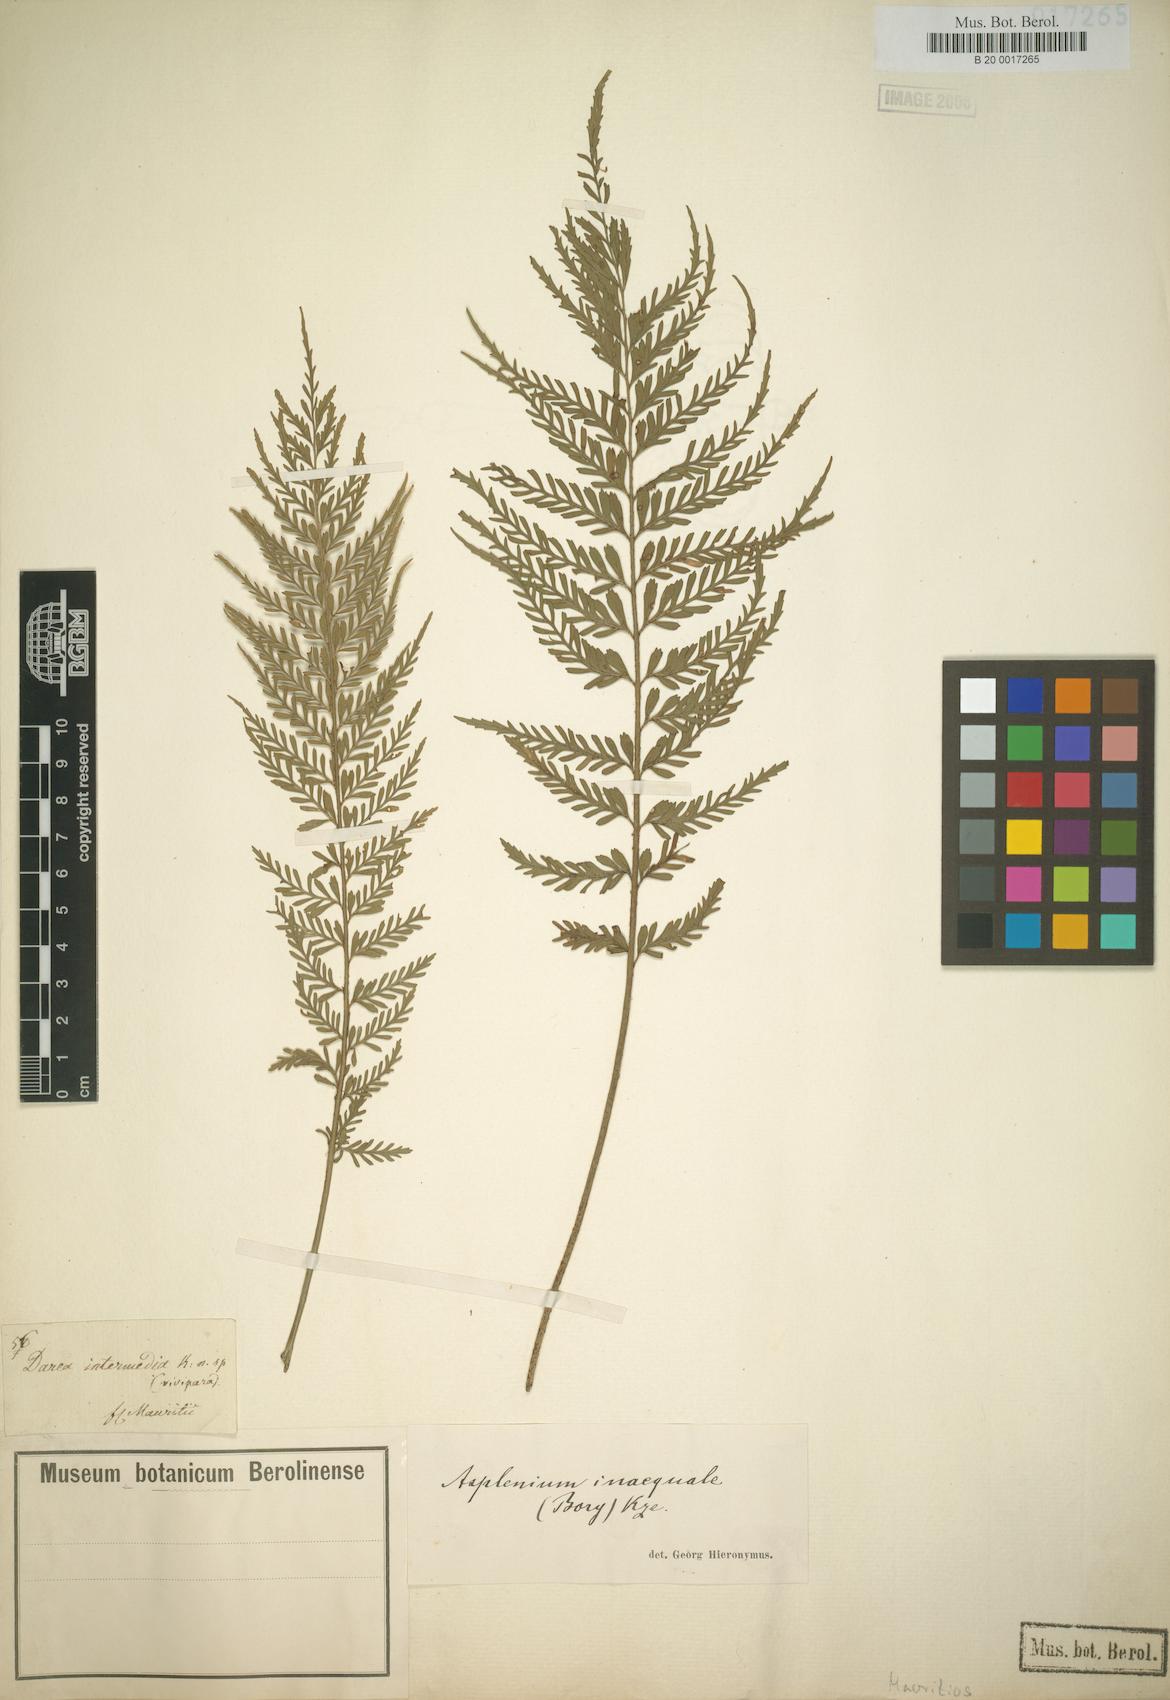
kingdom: Plantae
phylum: Tracheophyta
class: Polypodiopsida
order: Polypodiales
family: Aspleniaceae
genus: Asplenium
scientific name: Asplenium daucifolium
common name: Mauritius spleenwort
